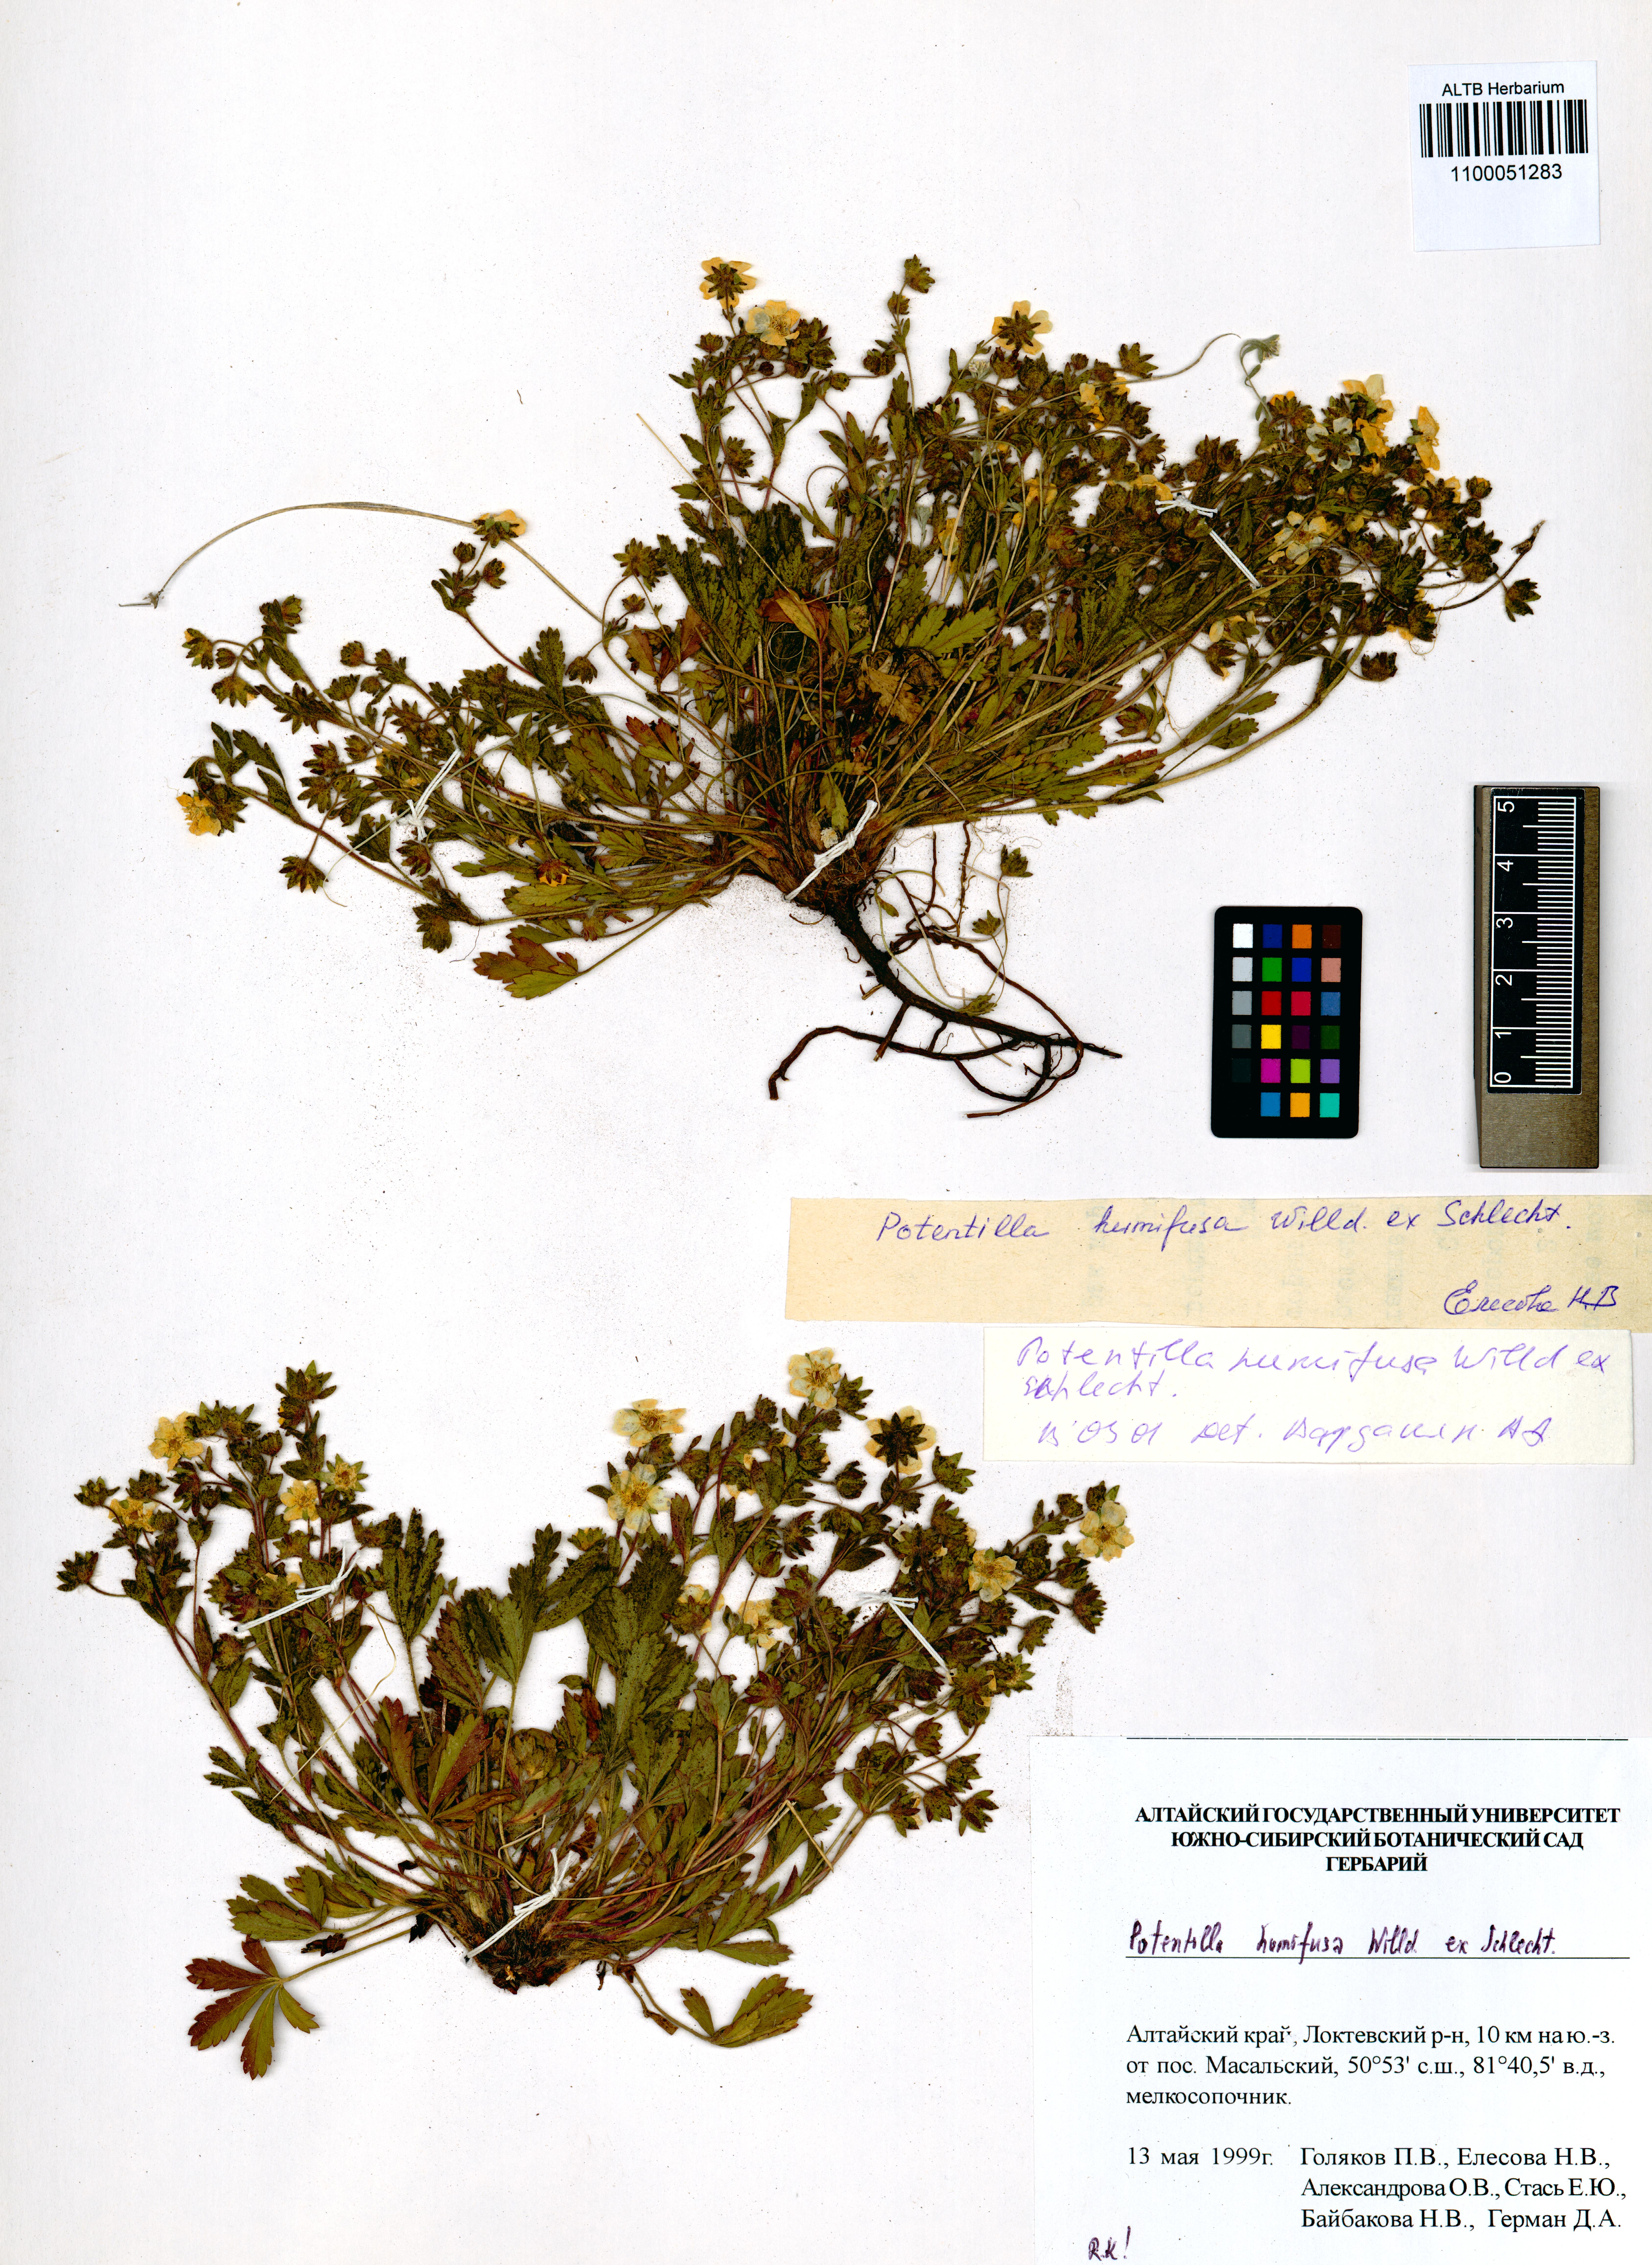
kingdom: Plantae
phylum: Tracheophyta
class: Magnoliopsida
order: Rosales
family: Rosaceae
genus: Potentilla
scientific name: Potentilla humifusa
